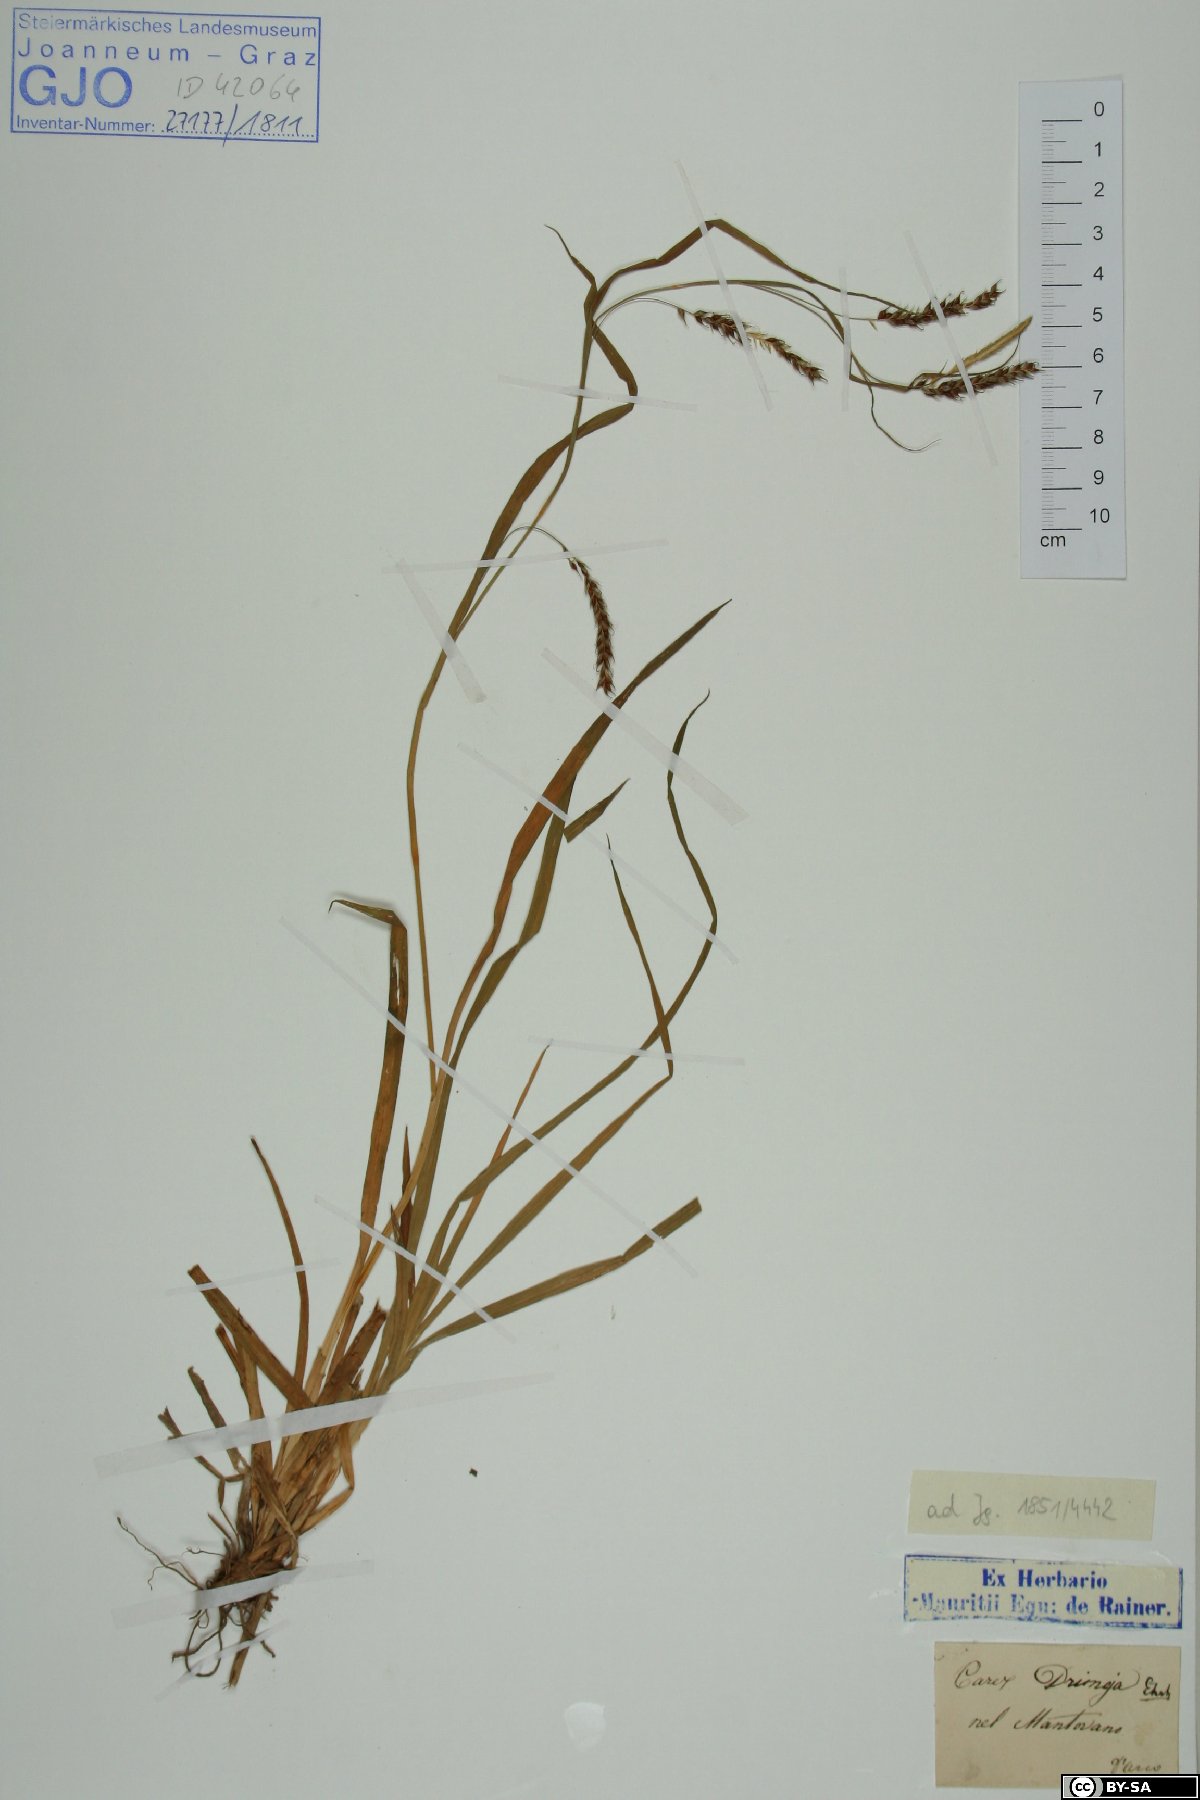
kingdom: Plantae
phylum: Tracheophyta
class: Liliopsida
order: Poales
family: Cyperaceae
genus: Carex
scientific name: Carex sylvatica
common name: Wood-sedge
